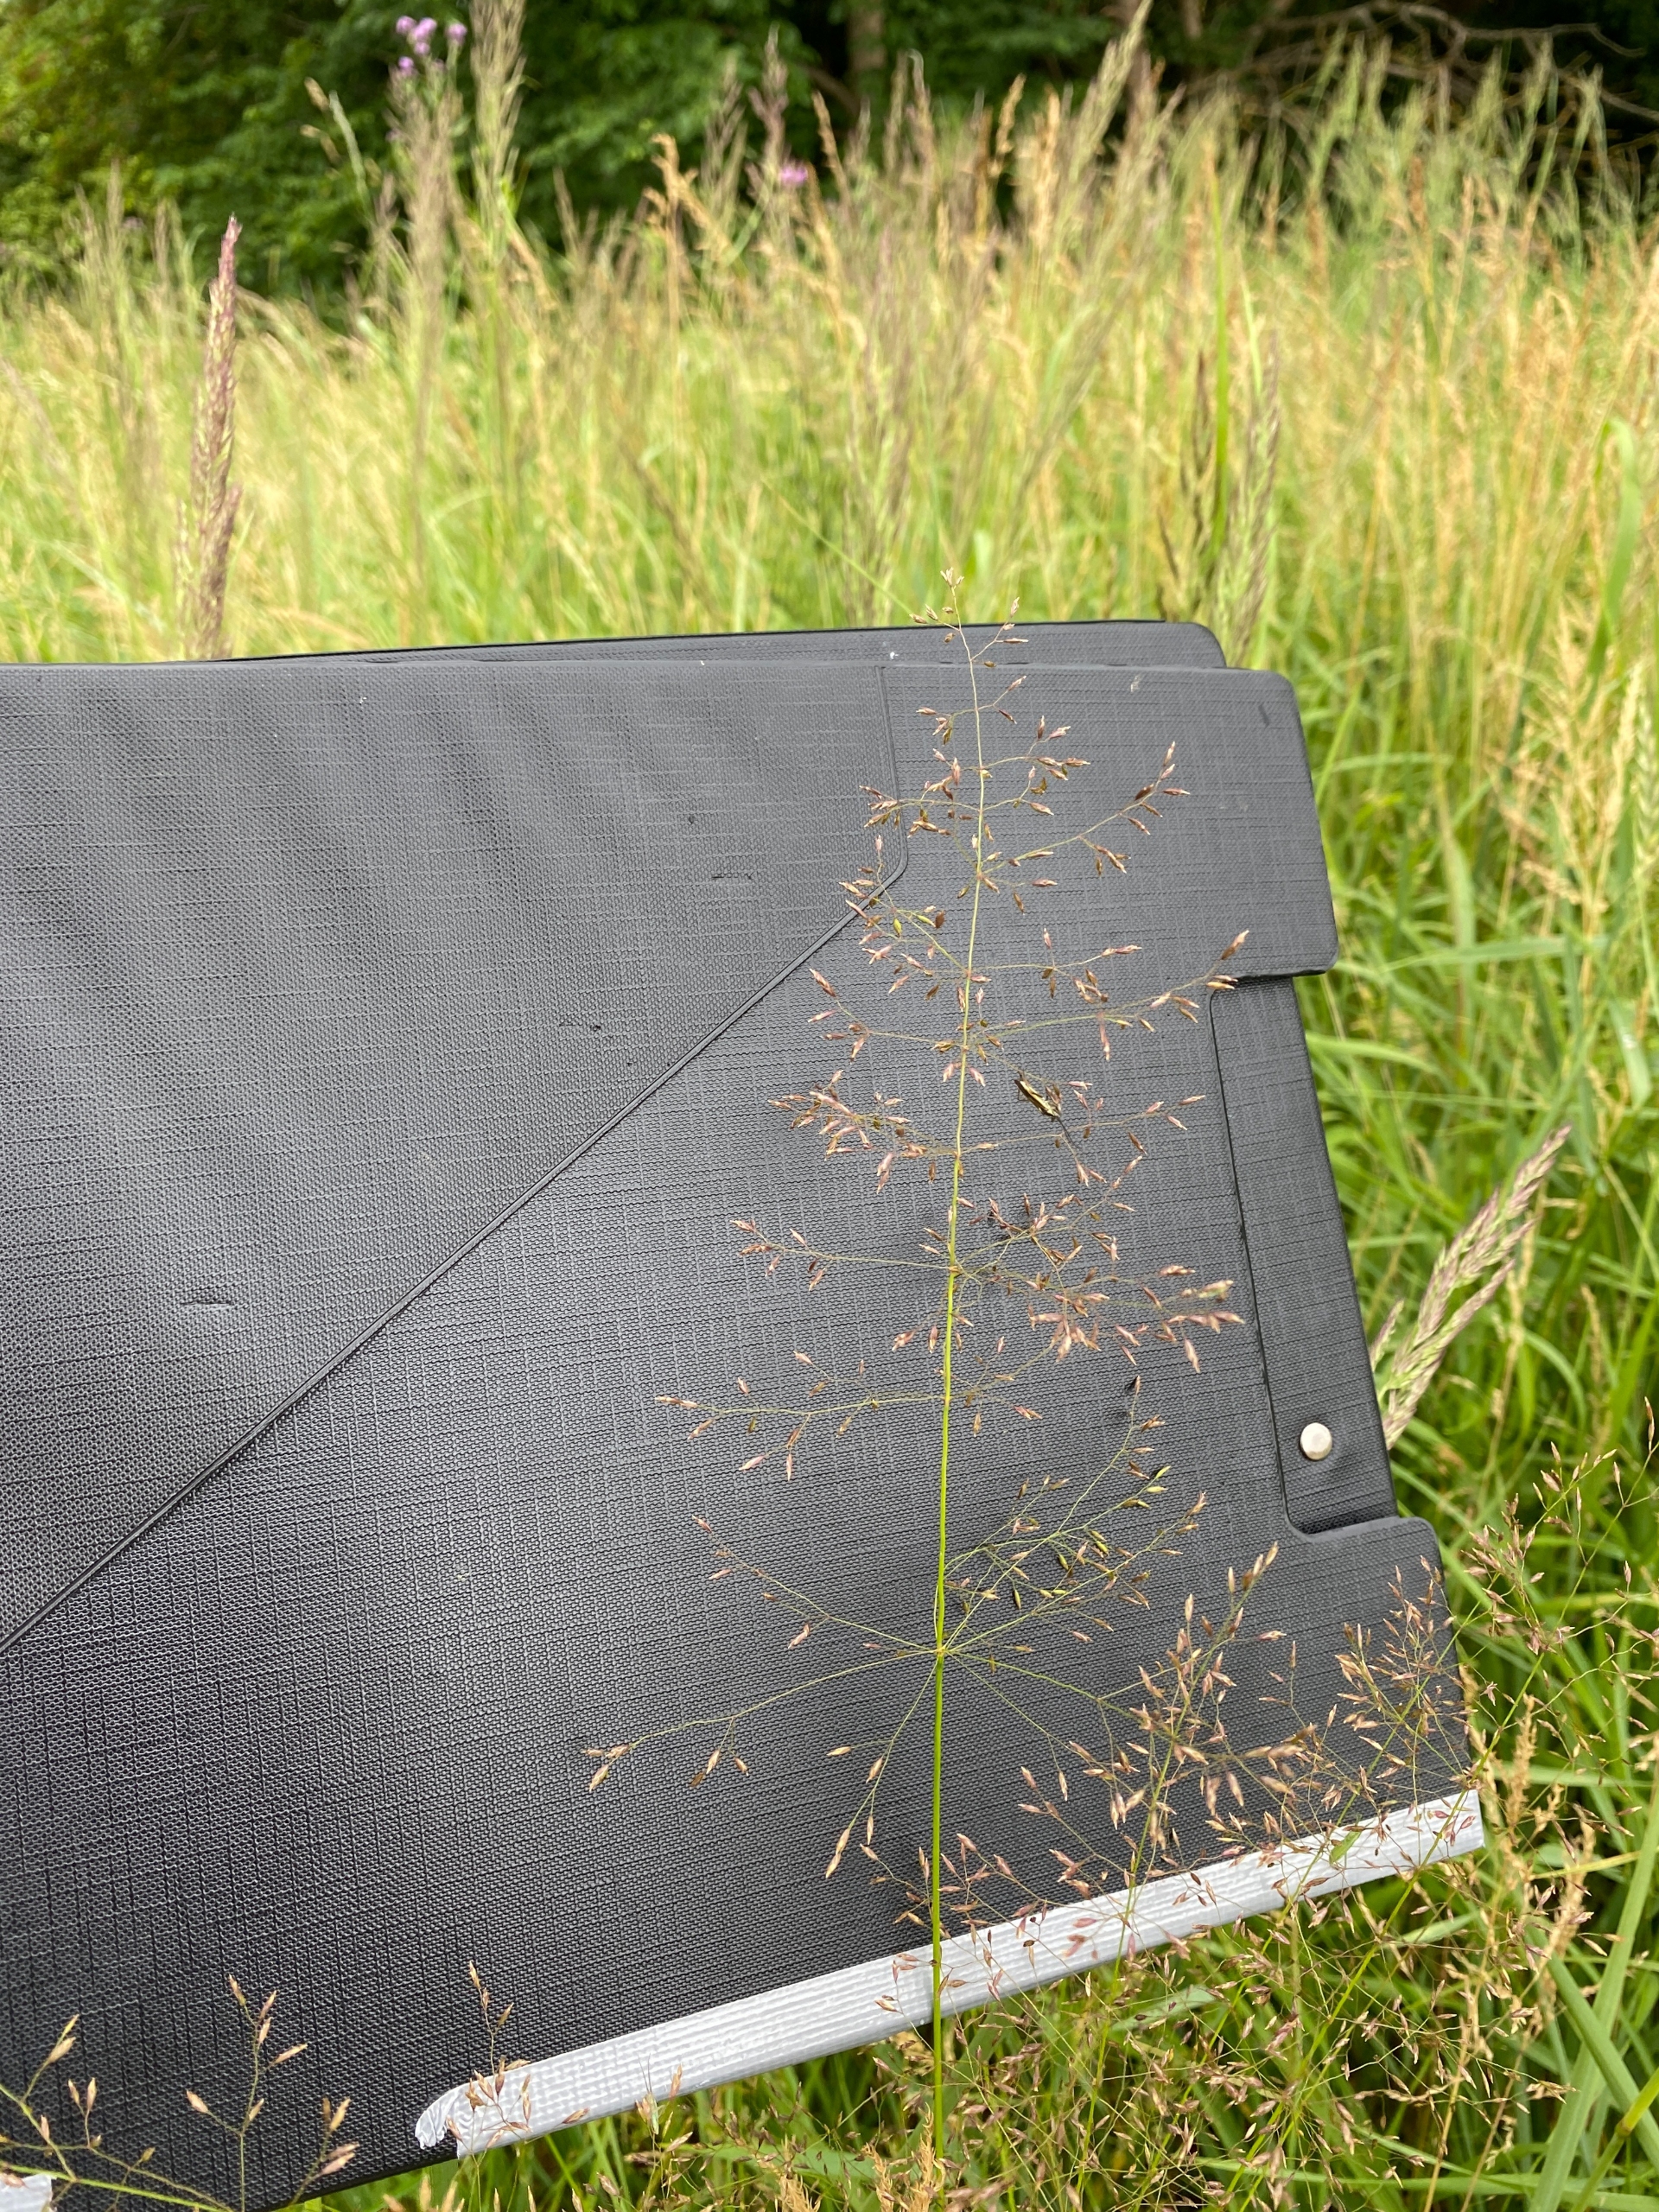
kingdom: Plantae
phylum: Tracheophyta
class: Liliopsida
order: Poales
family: Poaceae
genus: Poa
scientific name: Poa palustris
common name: Stortoppet rapgræs
